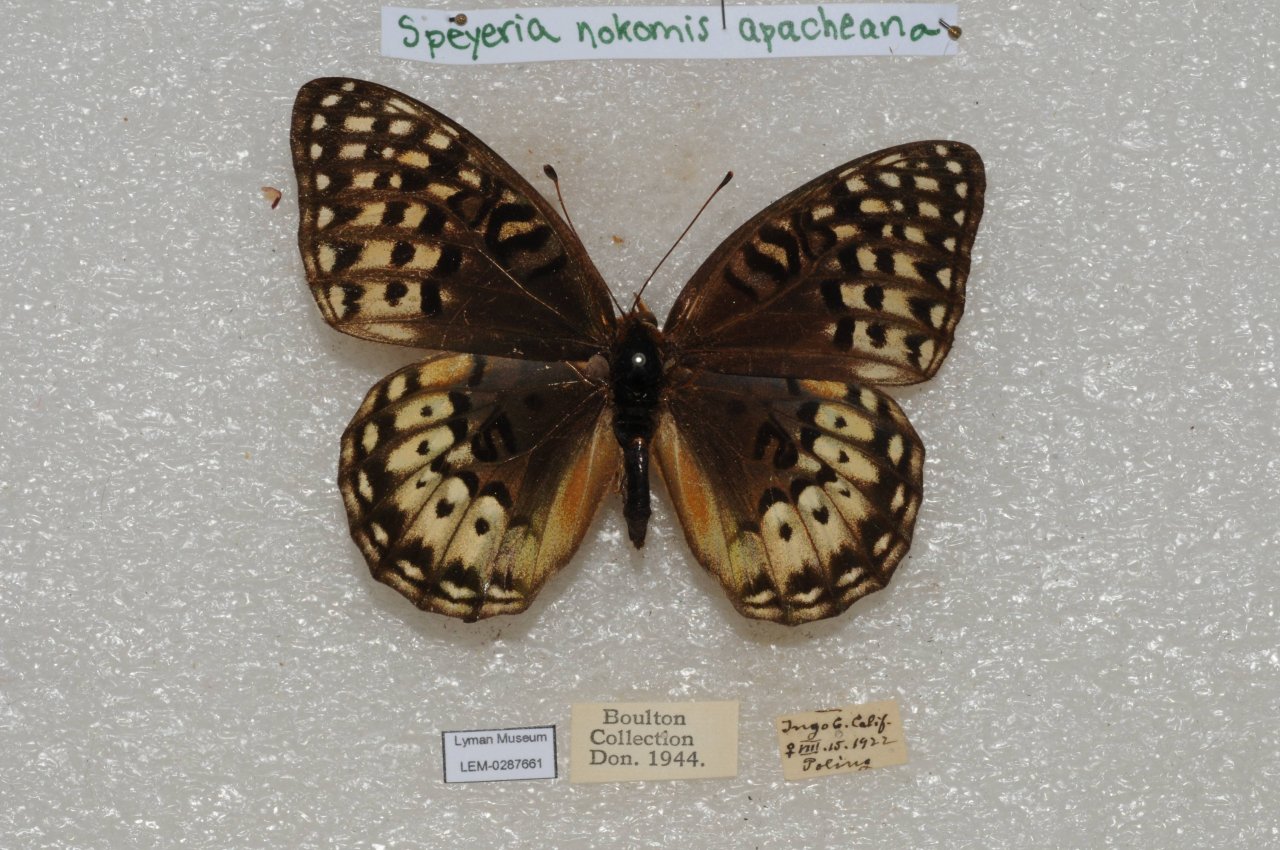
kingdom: Animalia
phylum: Arthropoda
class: Insecta
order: Lepidoptera
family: Nymphalidae
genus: Speyeria
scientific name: Speyeria nokomis
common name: Nokomis Fritillary
